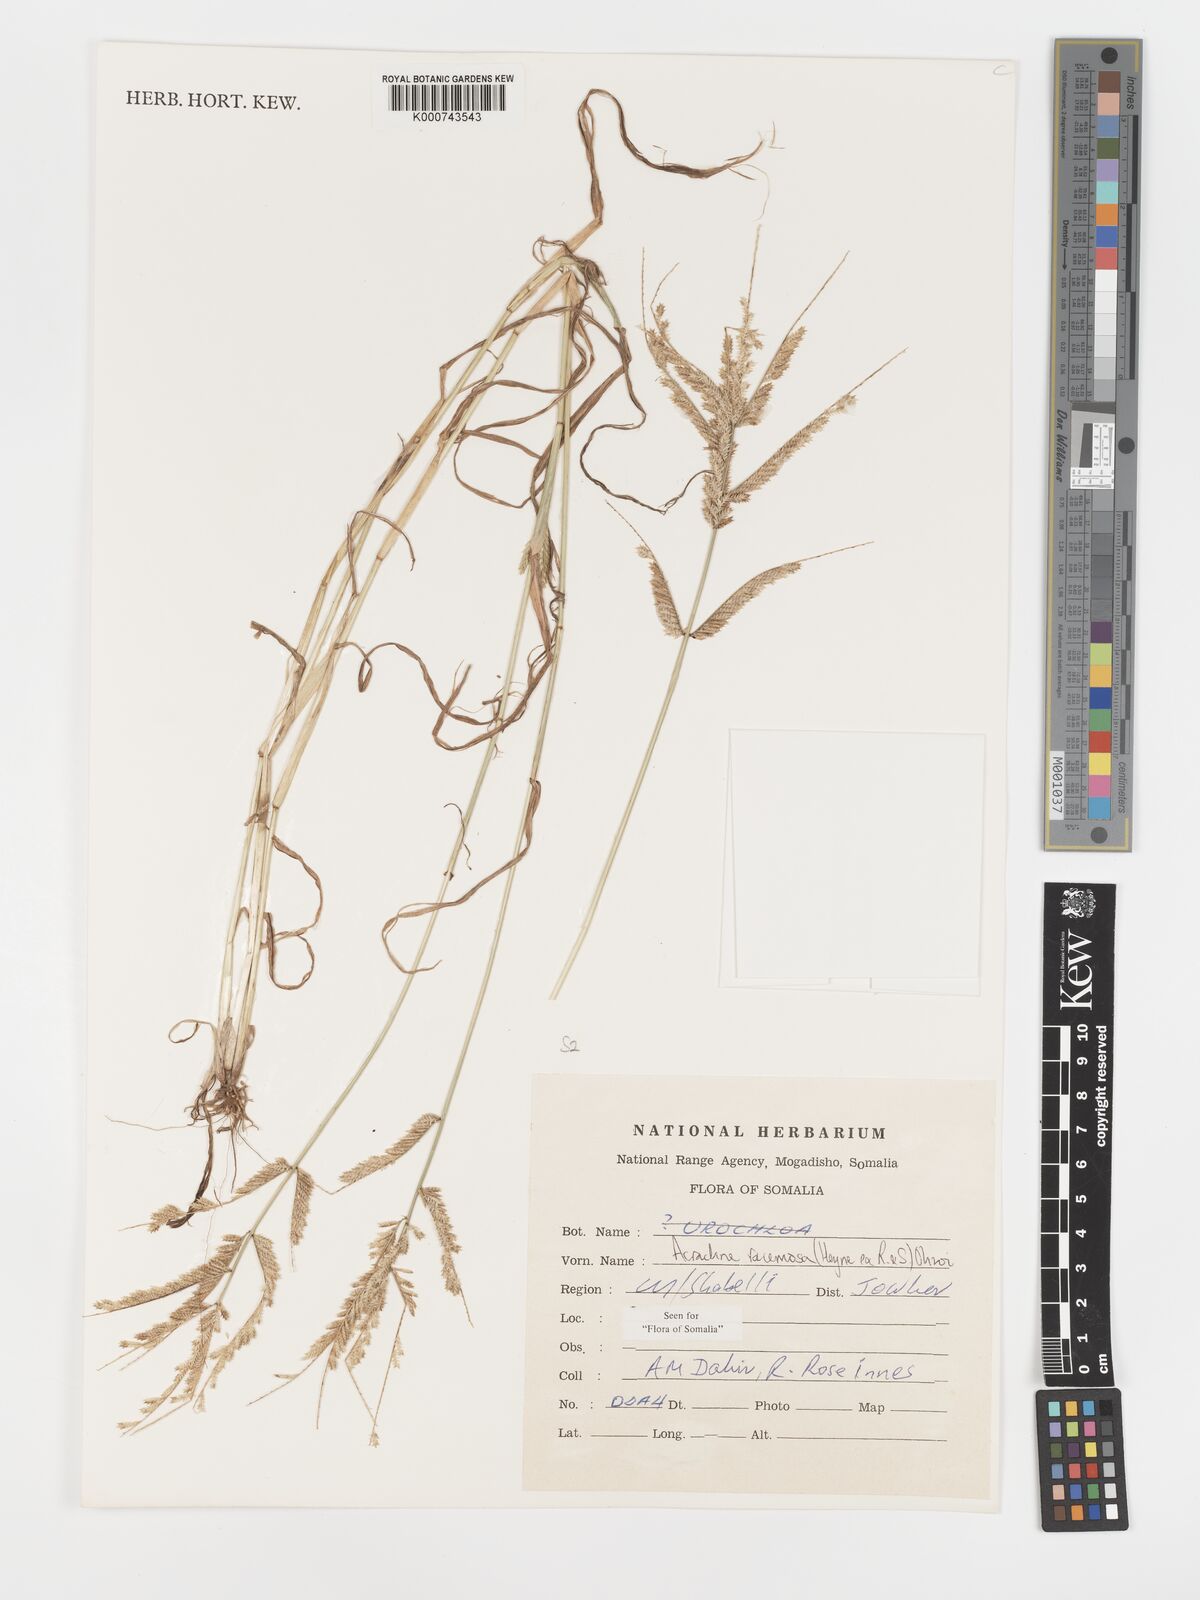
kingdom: Plantae
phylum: Tracheophyta
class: Liliopsida
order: Poales
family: Poaceae
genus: Acrachne
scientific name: Acrachne racemosa
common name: Goosegrass
